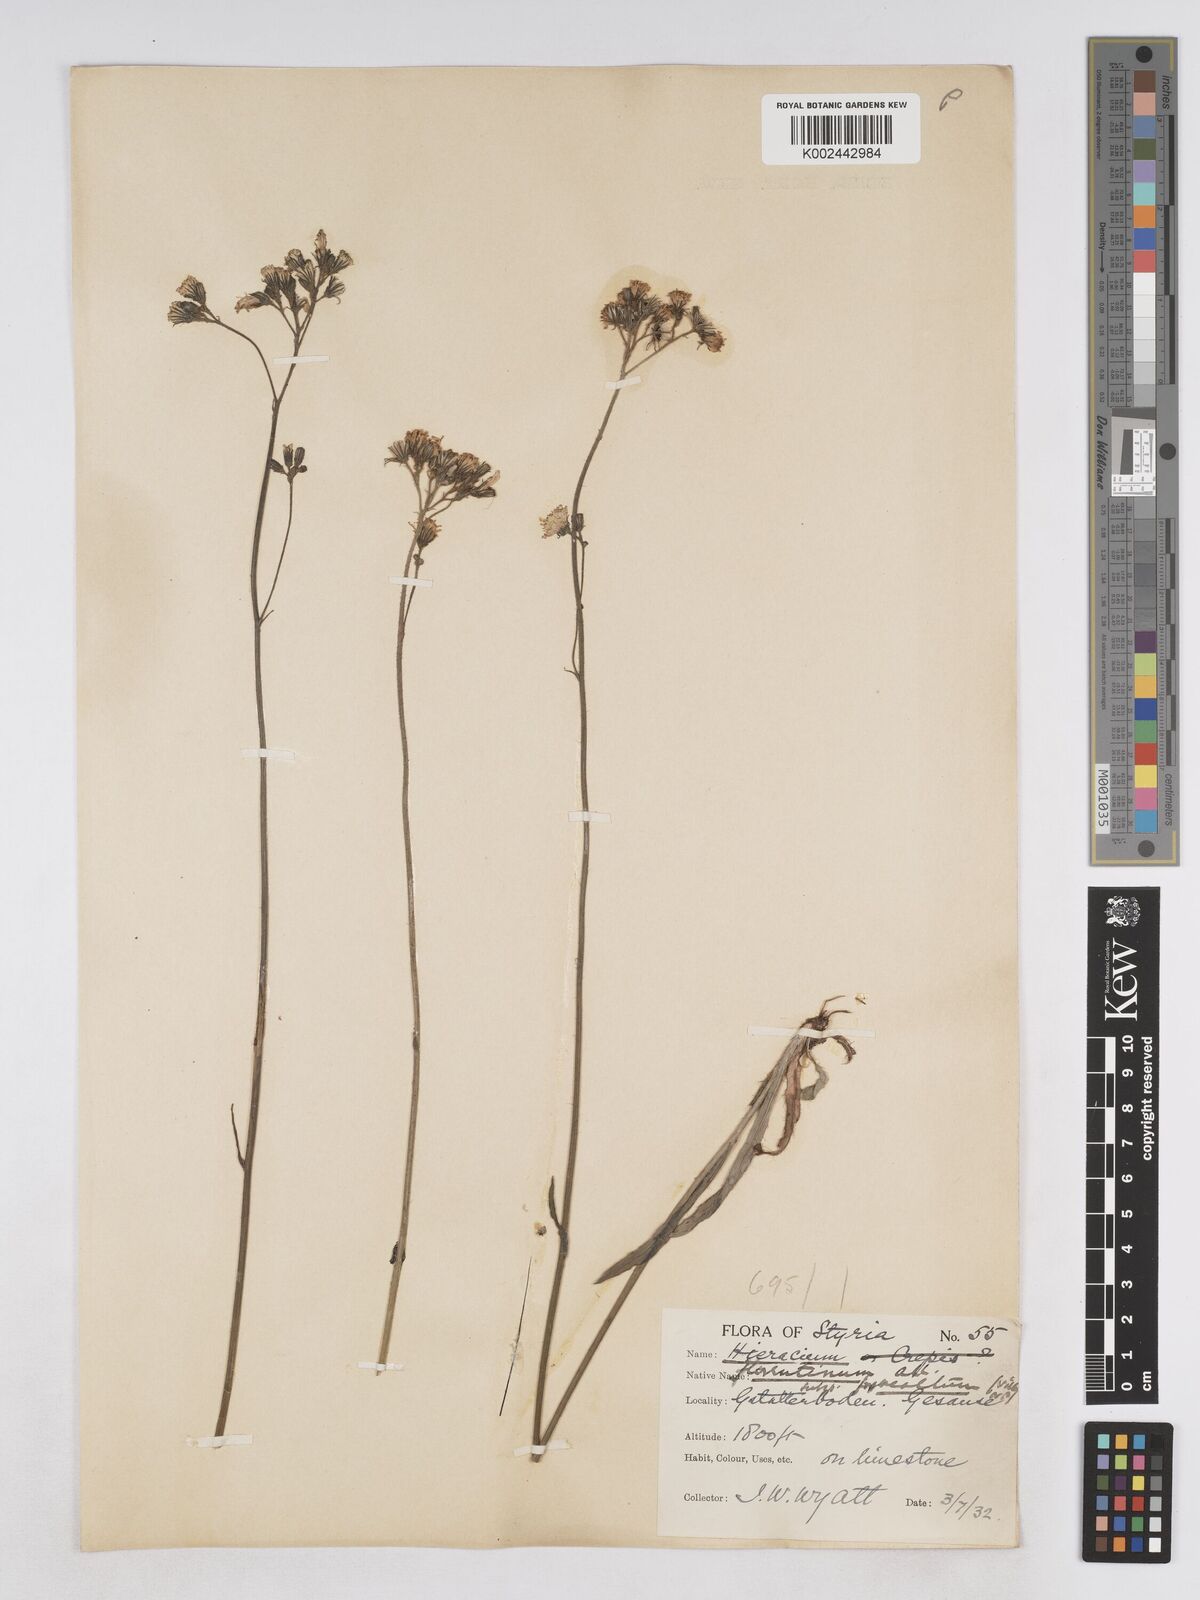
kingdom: Plantae
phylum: Tracheophyta
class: Magnoliopsida
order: Asterales
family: Asteraceae
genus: Pilosella
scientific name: Pilosella piloselloides
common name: Glaucous king-devil
